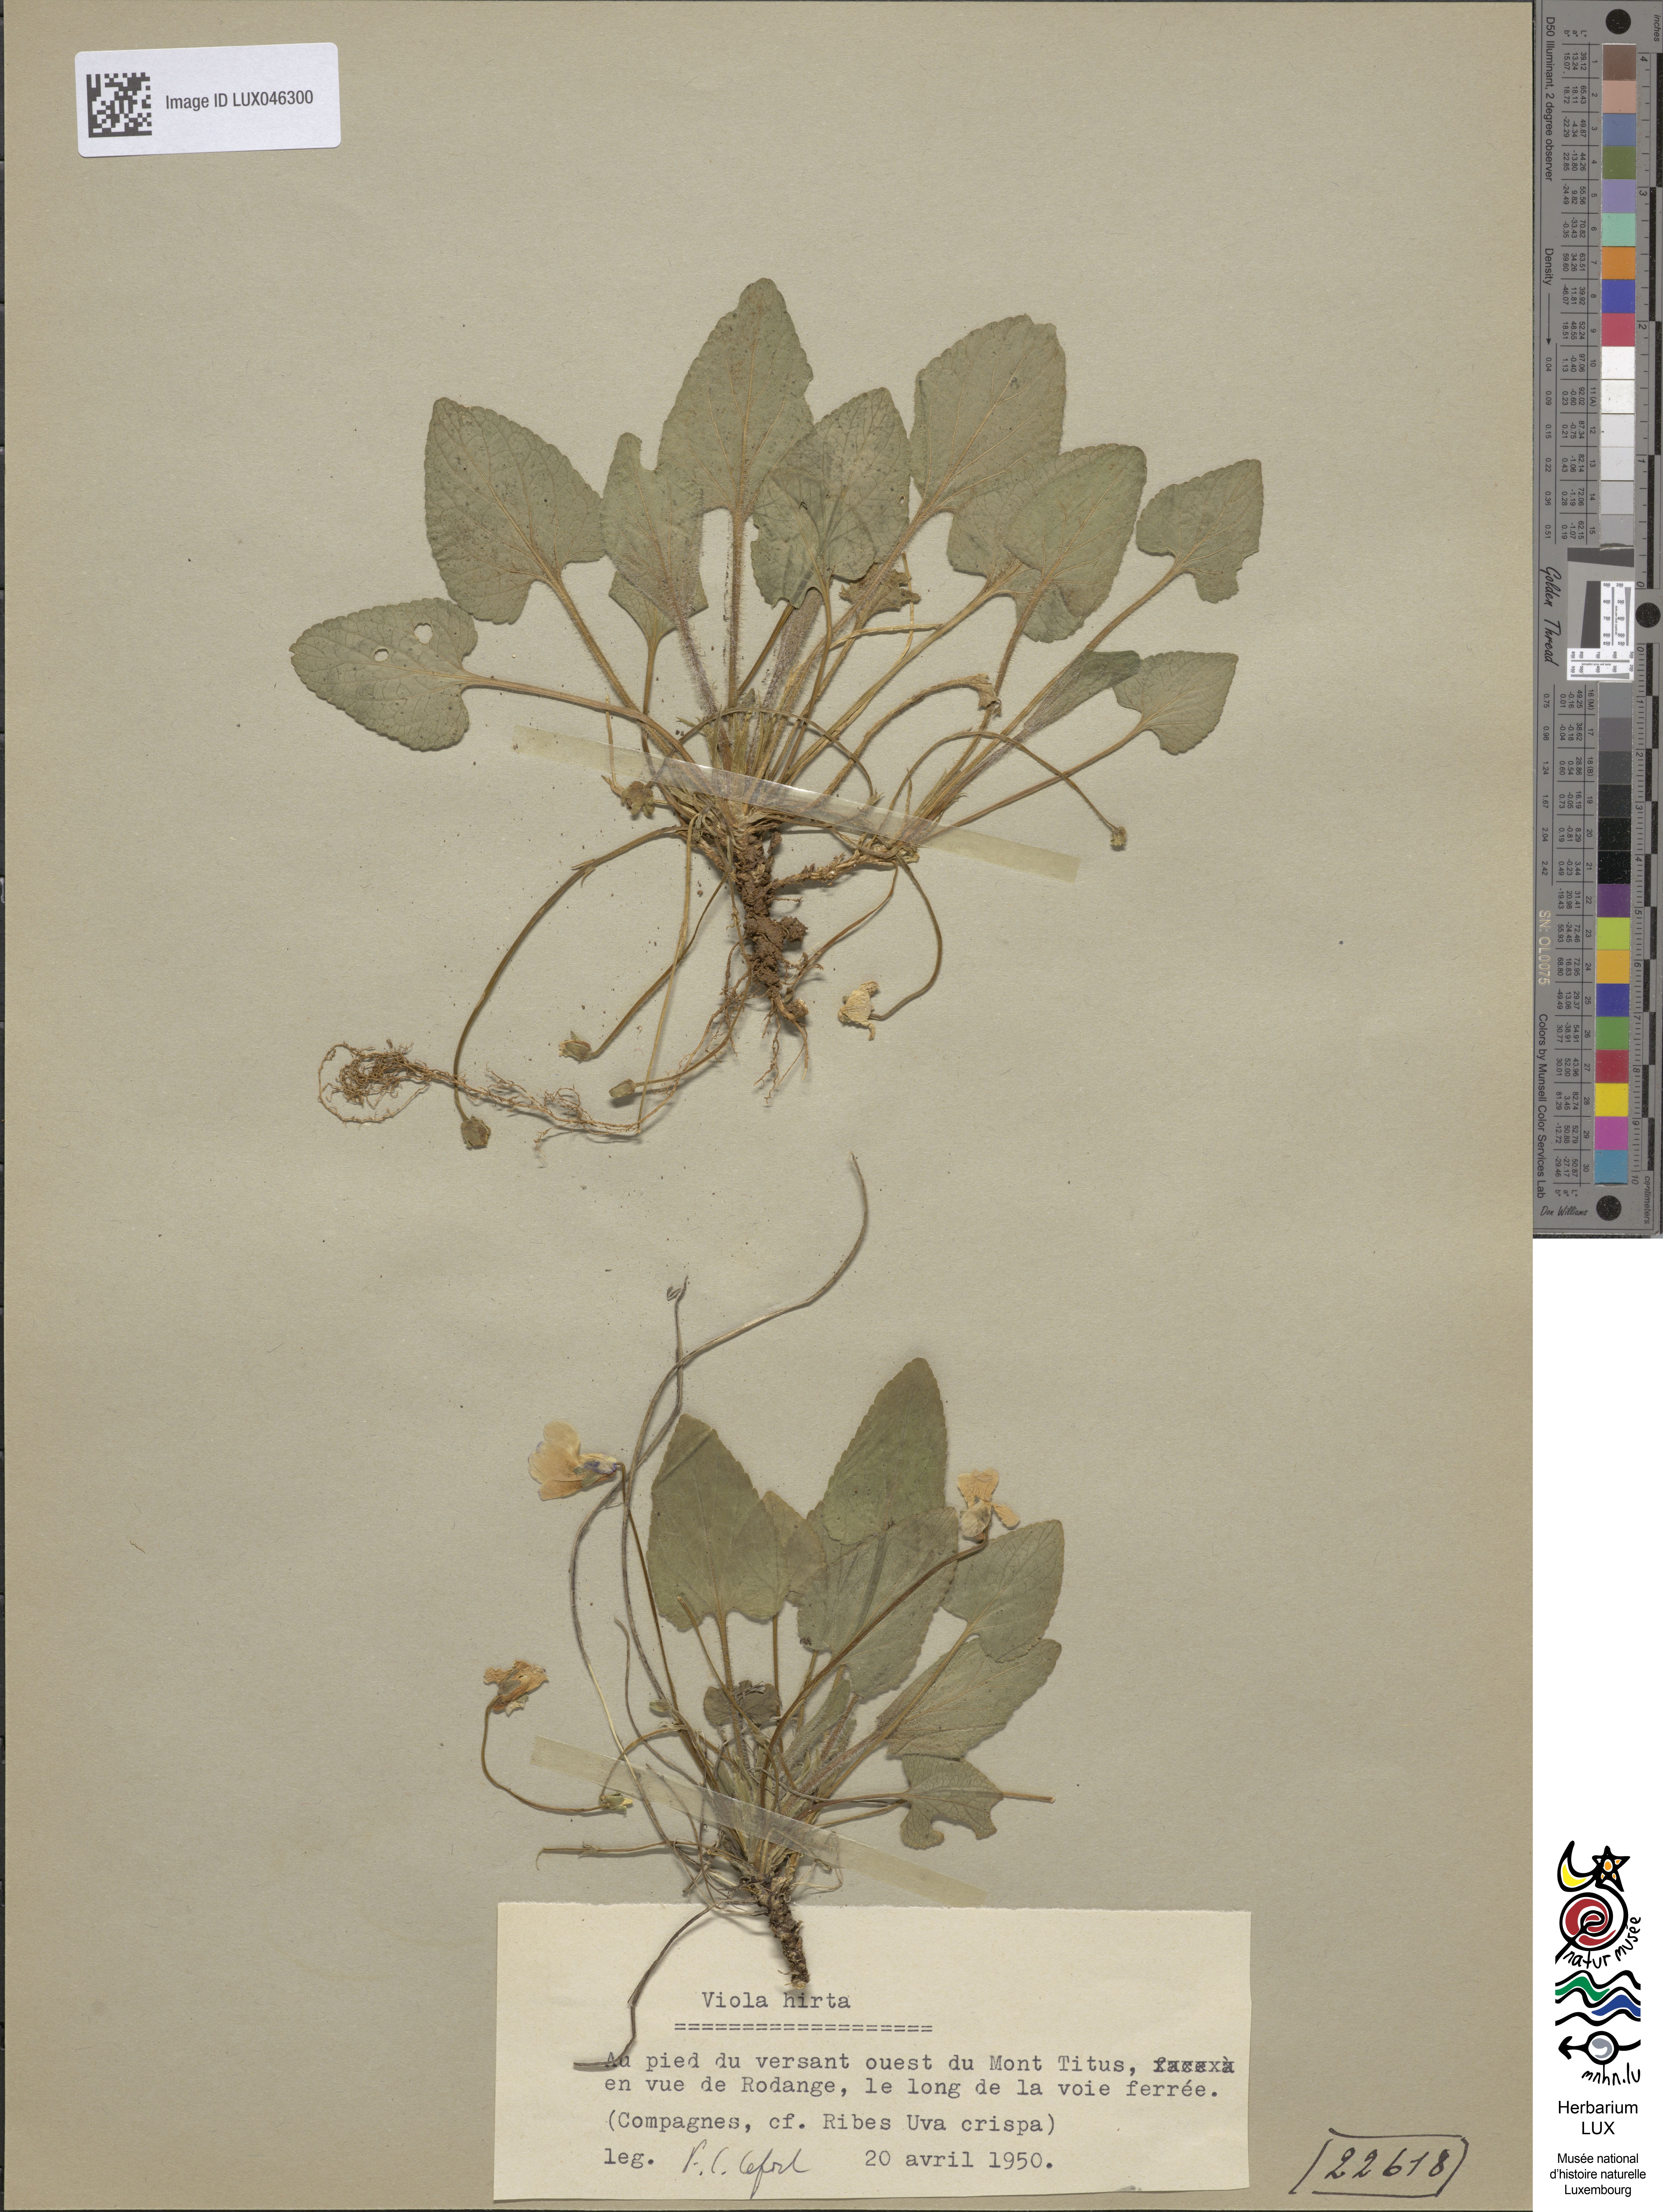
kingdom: Plantae
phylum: Tracheophyta
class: Magnoliopsida
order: Malpighiales
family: Violaceae
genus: Viola
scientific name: Viola hirta
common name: Hairy violet
